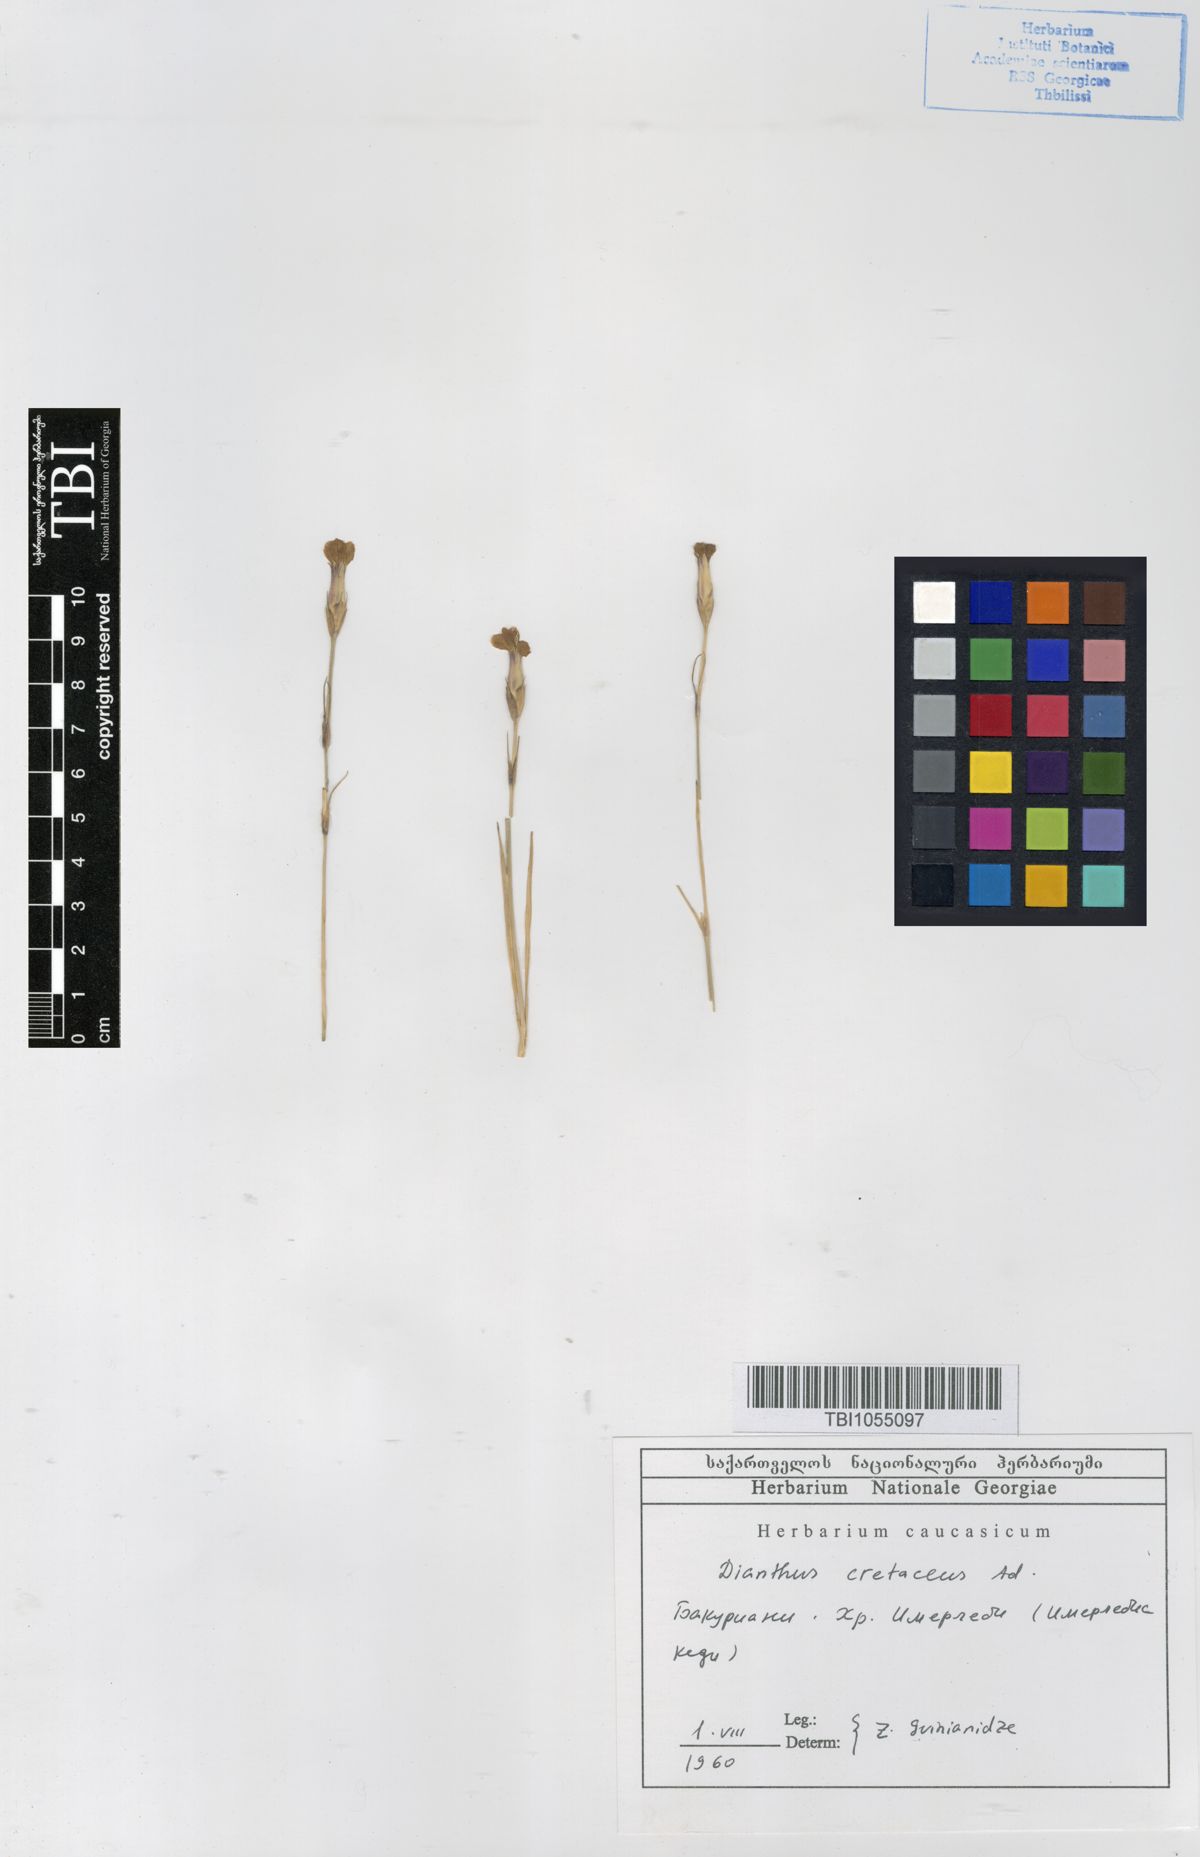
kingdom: Plantae
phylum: Tracheophyta
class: Magnoliopsida
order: Caryophyllales
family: Caryophyllaceae
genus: Dianthus
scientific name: Dianthus cretaceus
